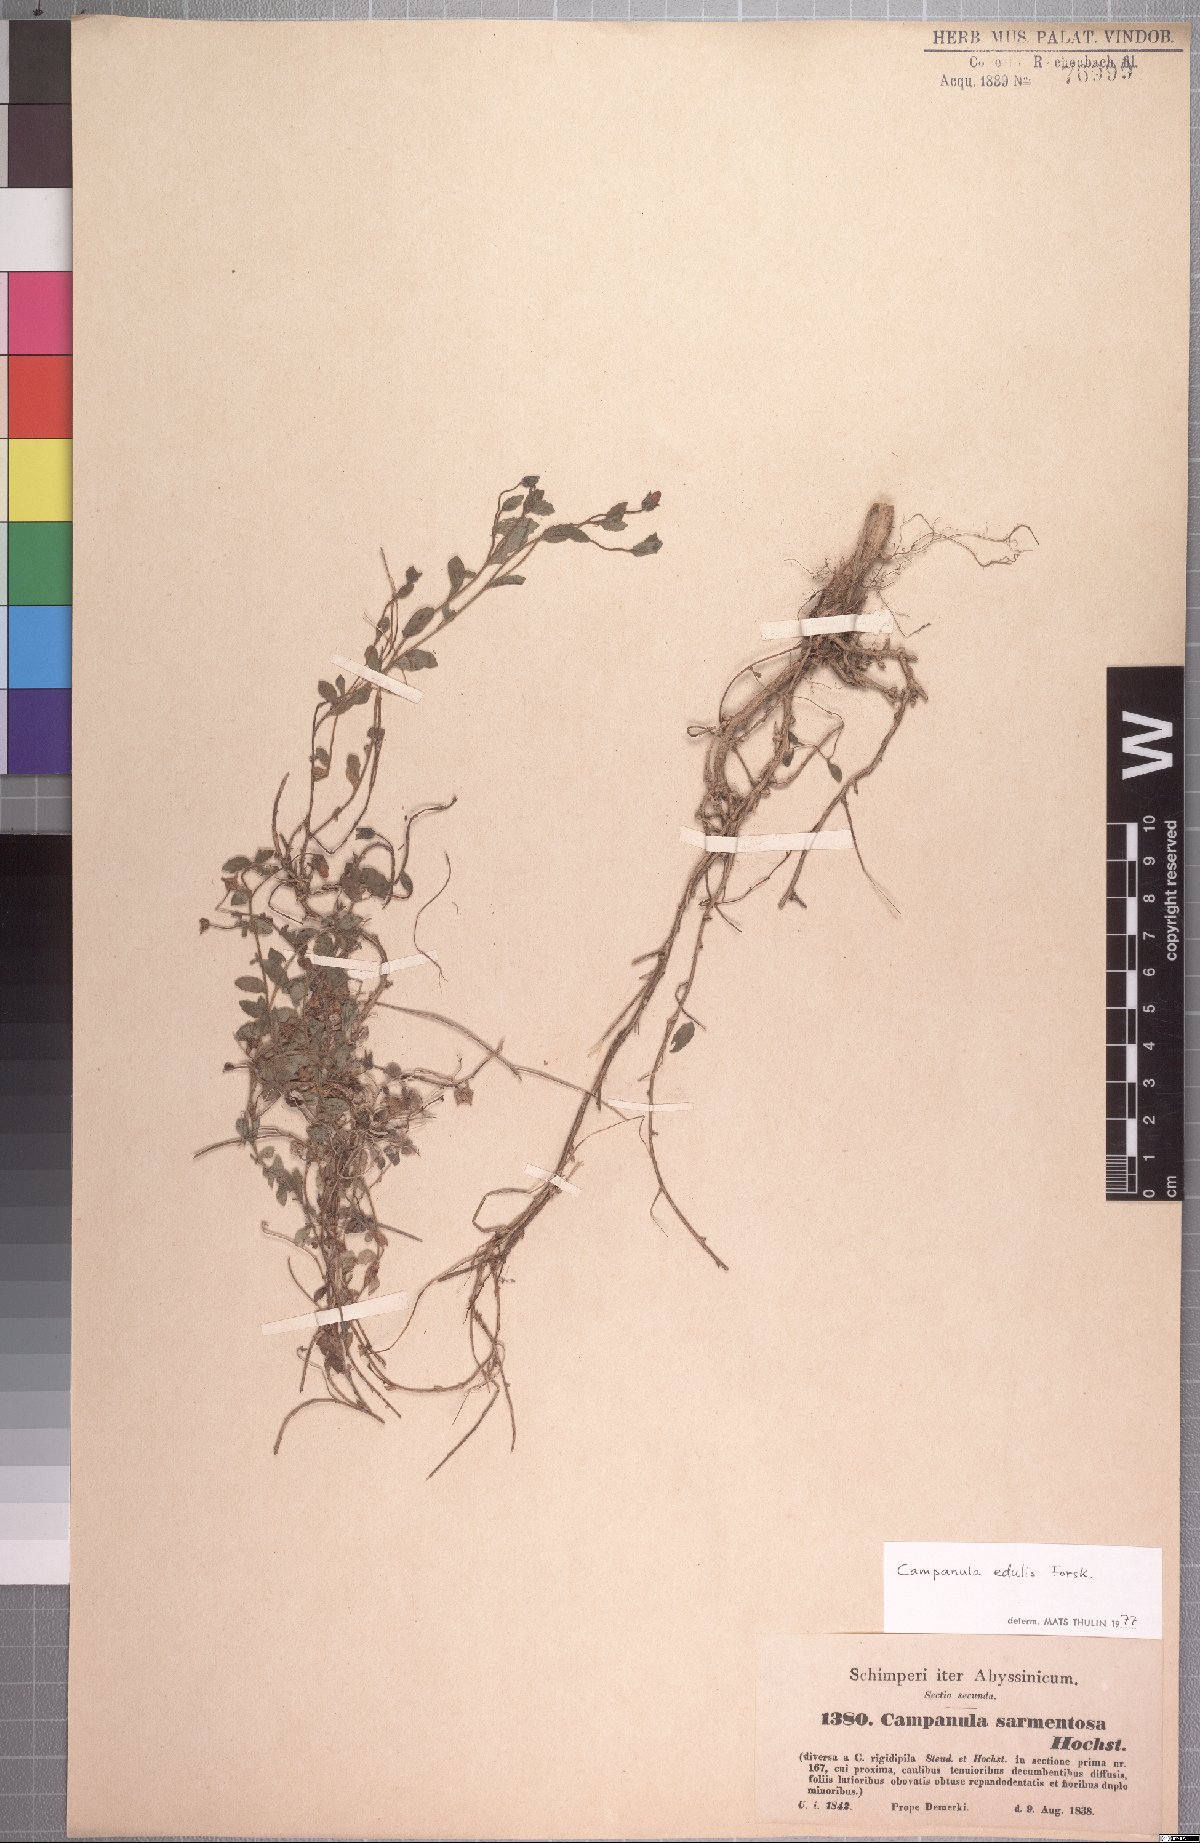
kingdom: Plantae
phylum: Tracheophyta
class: Magnoliopsida
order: Asterales
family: Campanulaceae
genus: Campanula
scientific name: Campanula edulis
